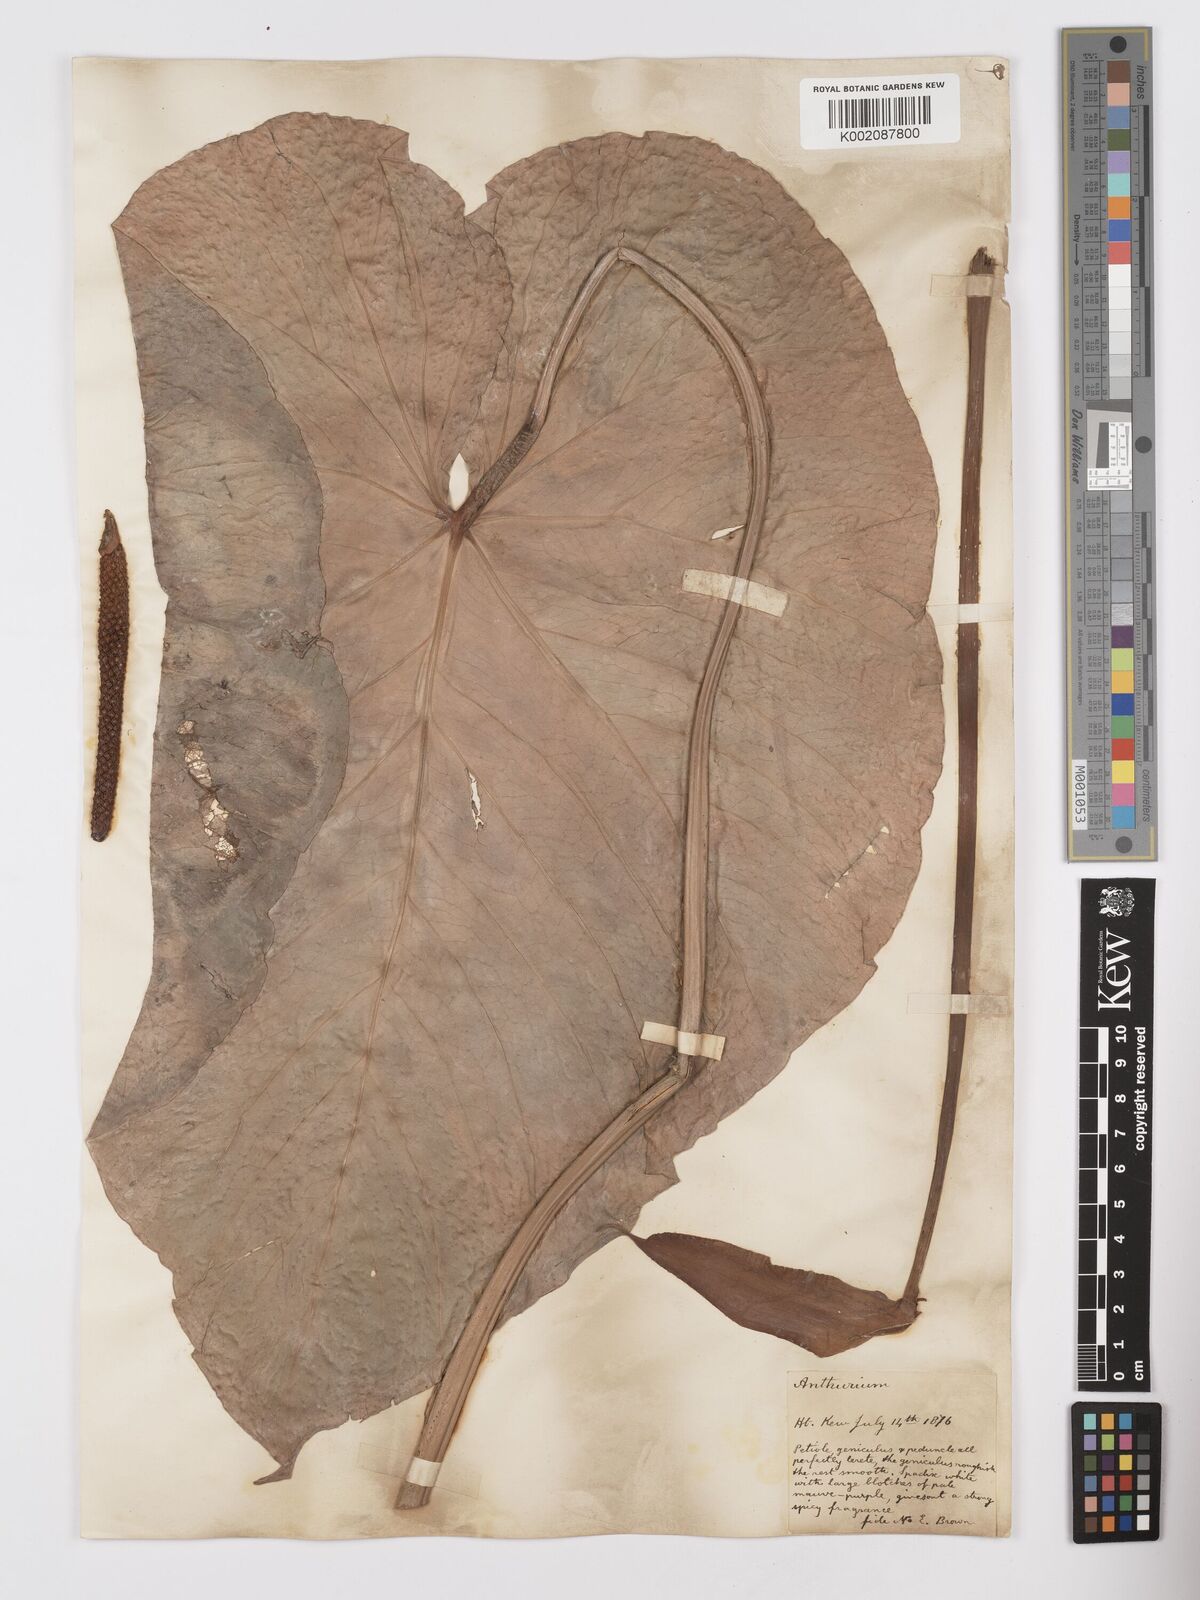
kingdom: Plantae
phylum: Tracheophyta
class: Liliopsida
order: Alismatales
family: Araceae
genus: Anthurium
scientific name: Anthurium nymphaeifolium
